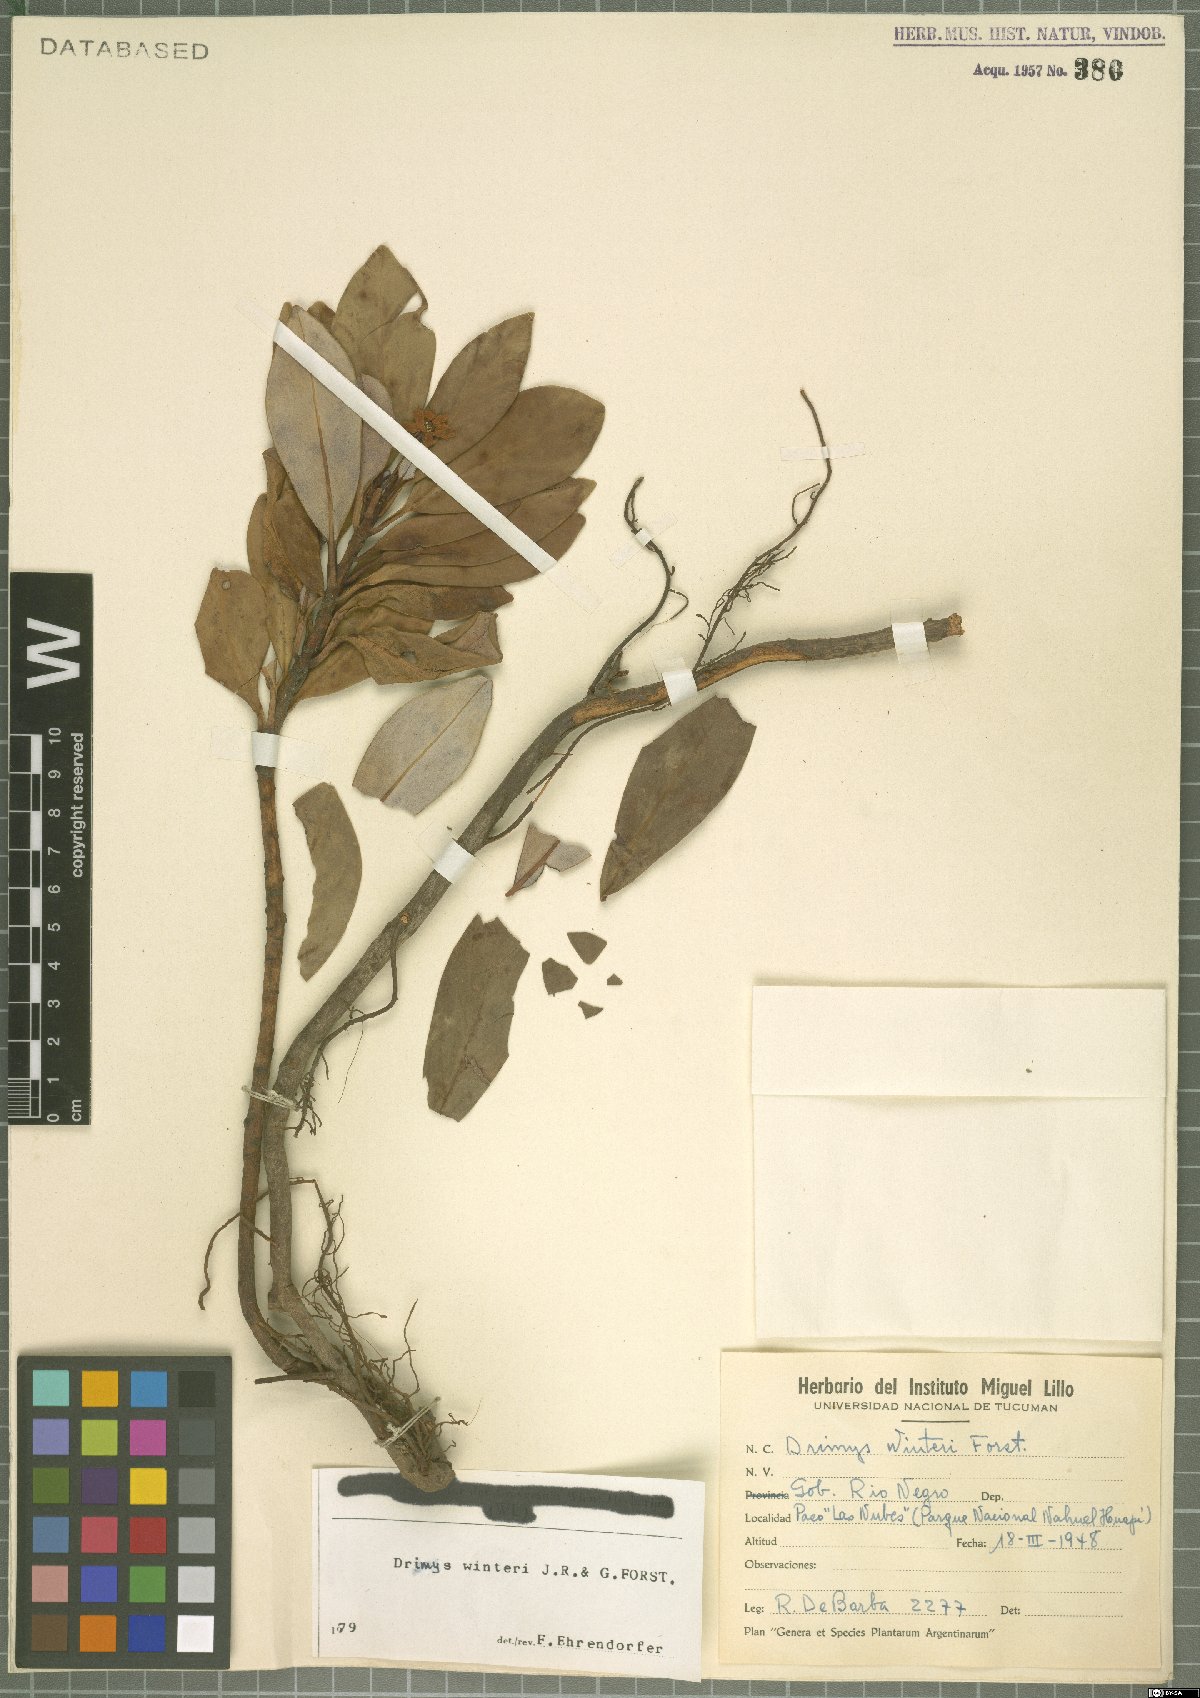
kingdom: Plantae
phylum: Tracheophyta
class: Magnoliopsida
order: Canellales
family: Winteraceae
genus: Drimys
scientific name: Drimys winteri
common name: Winter's-bark
